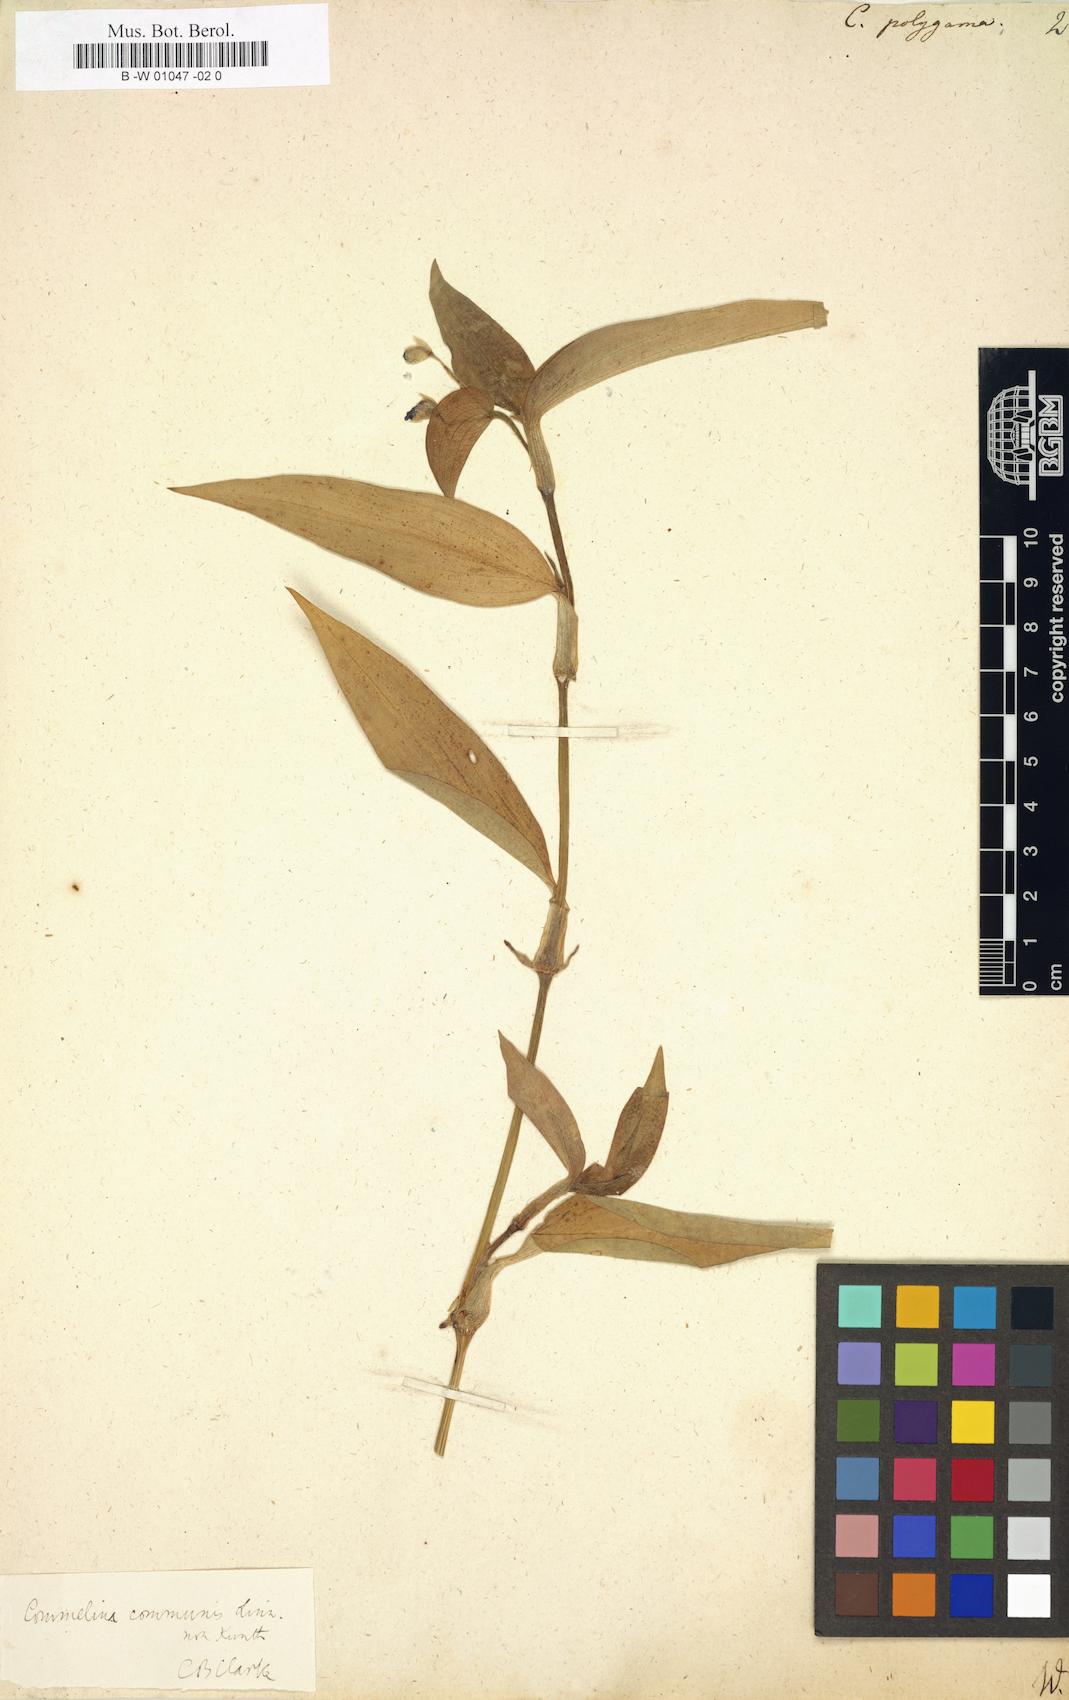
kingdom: Plantae
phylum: Tracheophyta
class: Liliopsida
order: Commelinales
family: Commelinaceae
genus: Commelina
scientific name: Commelina communis
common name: Asiatic dayflower
